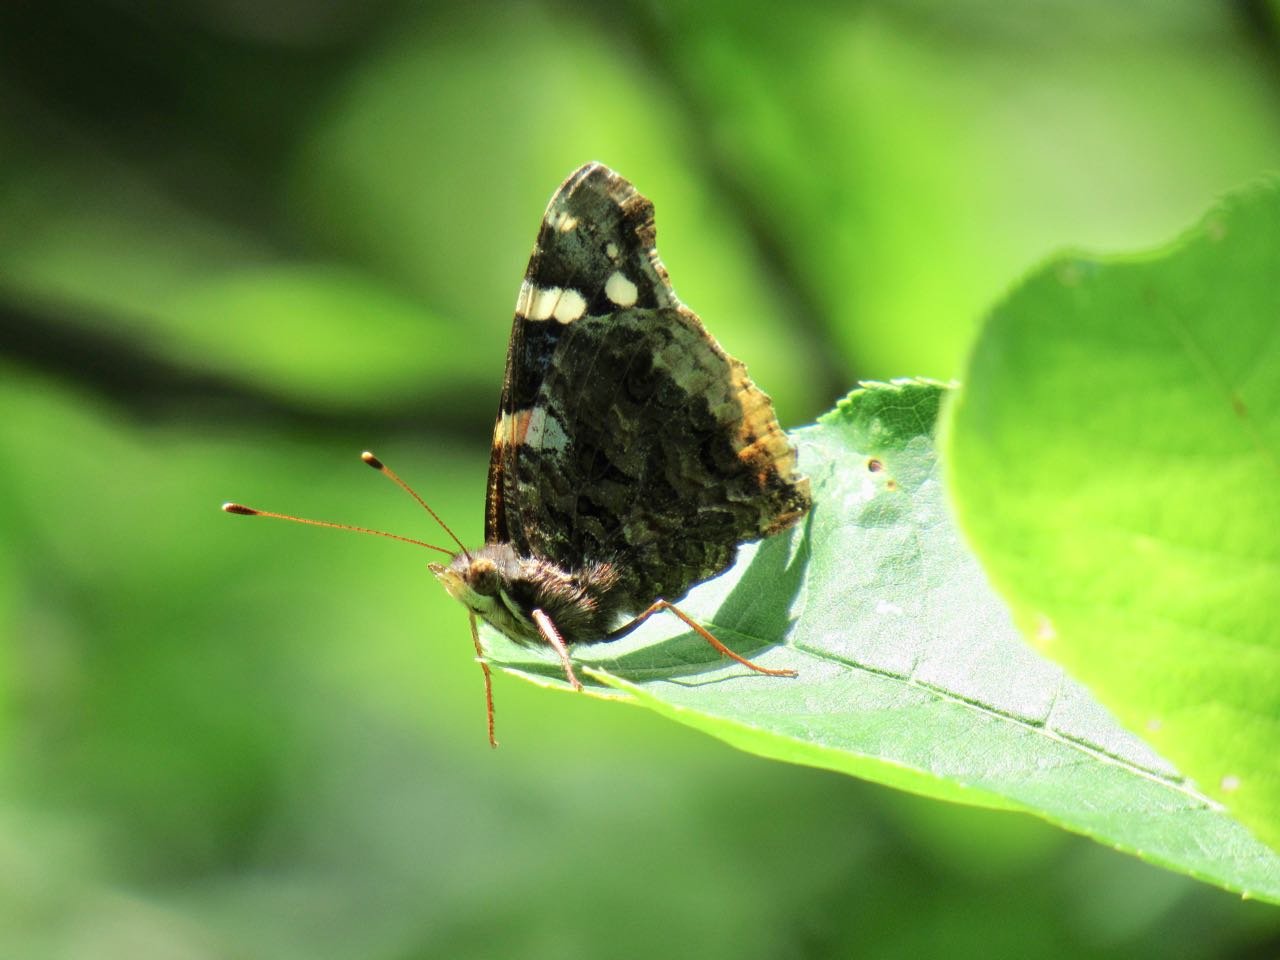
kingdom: Animalia
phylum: Arthropoda
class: Insecta
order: Lepidoptera
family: Nymphalidae
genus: Vanessa
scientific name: Vanessa atalanta
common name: Red Admiral
